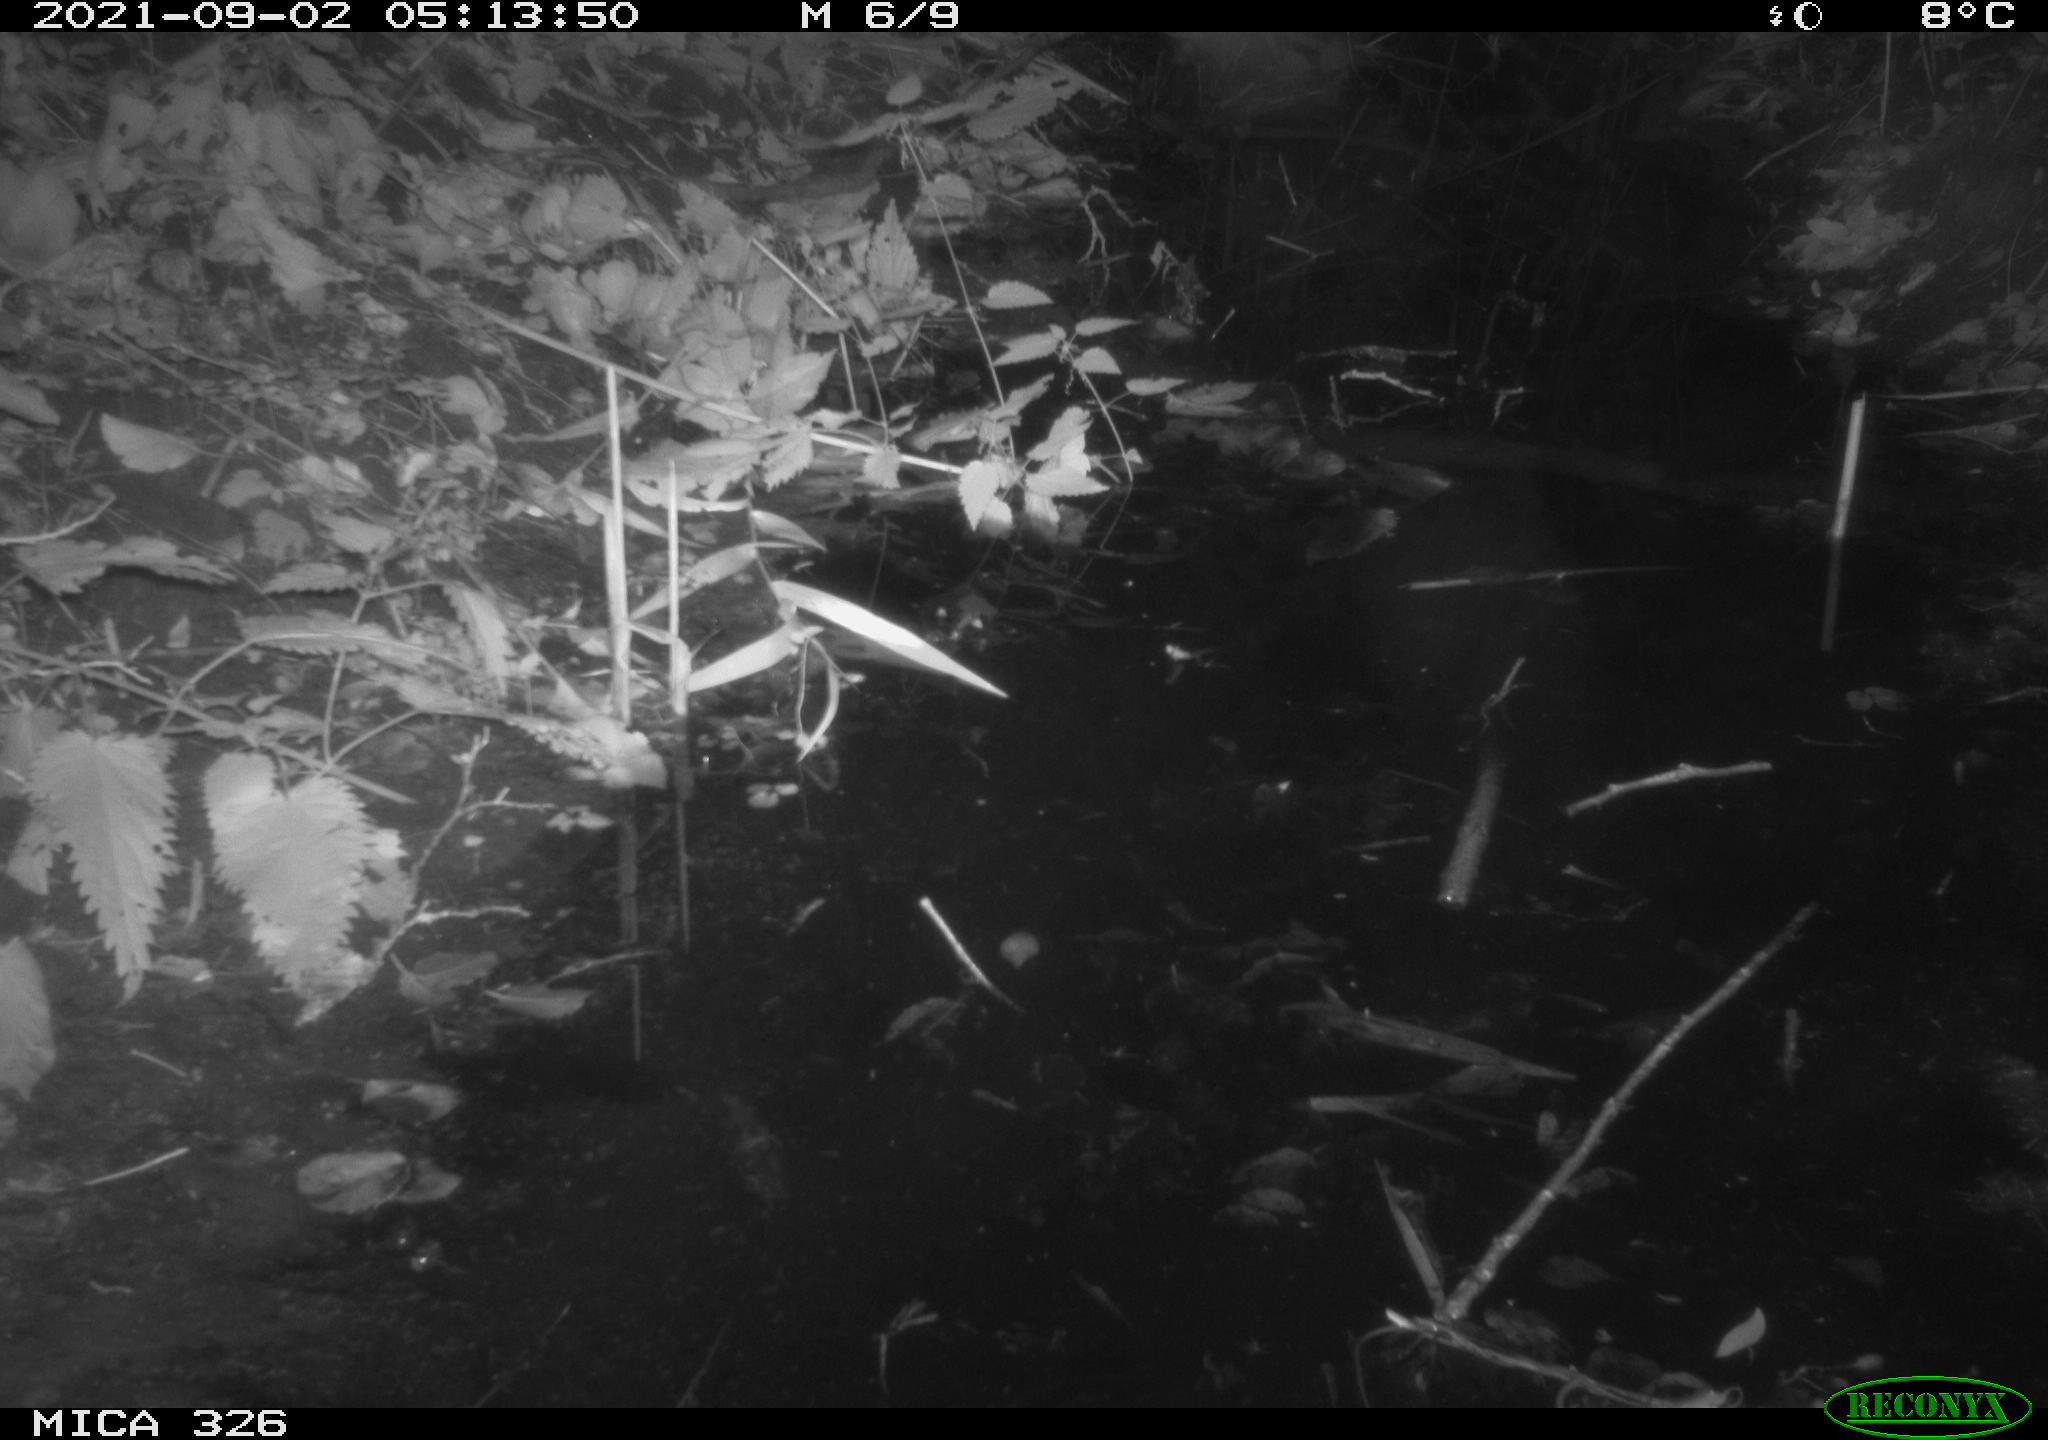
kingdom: Animalia
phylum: Chordata
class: Mammalia
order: Rodentia
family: Muridae
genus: Rattus
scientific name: Rattus norvegicus
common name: Brown rat
